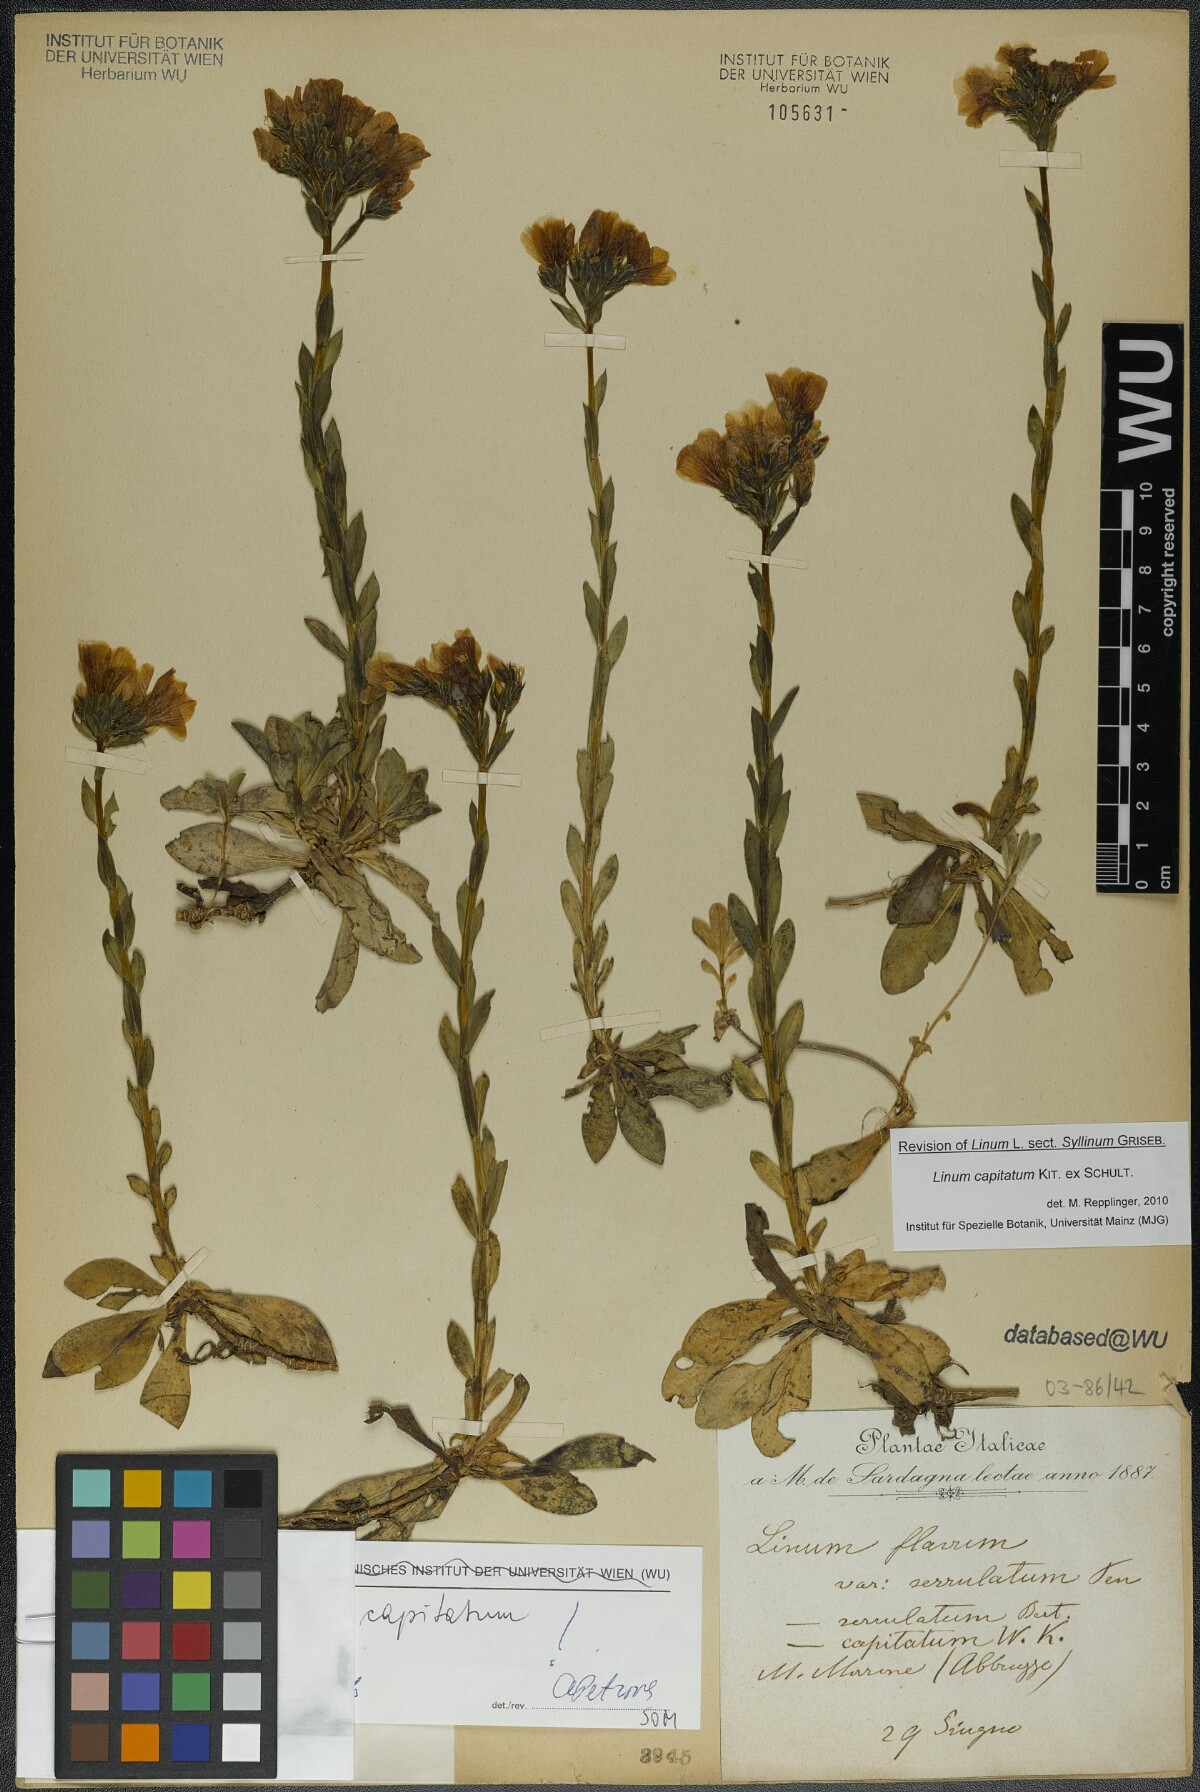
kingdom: Plantae
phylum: Tracheophyta
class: Magnoliopsida
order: Malpighiales
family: Linaceae
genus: Linum
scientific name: Linum capitatum
